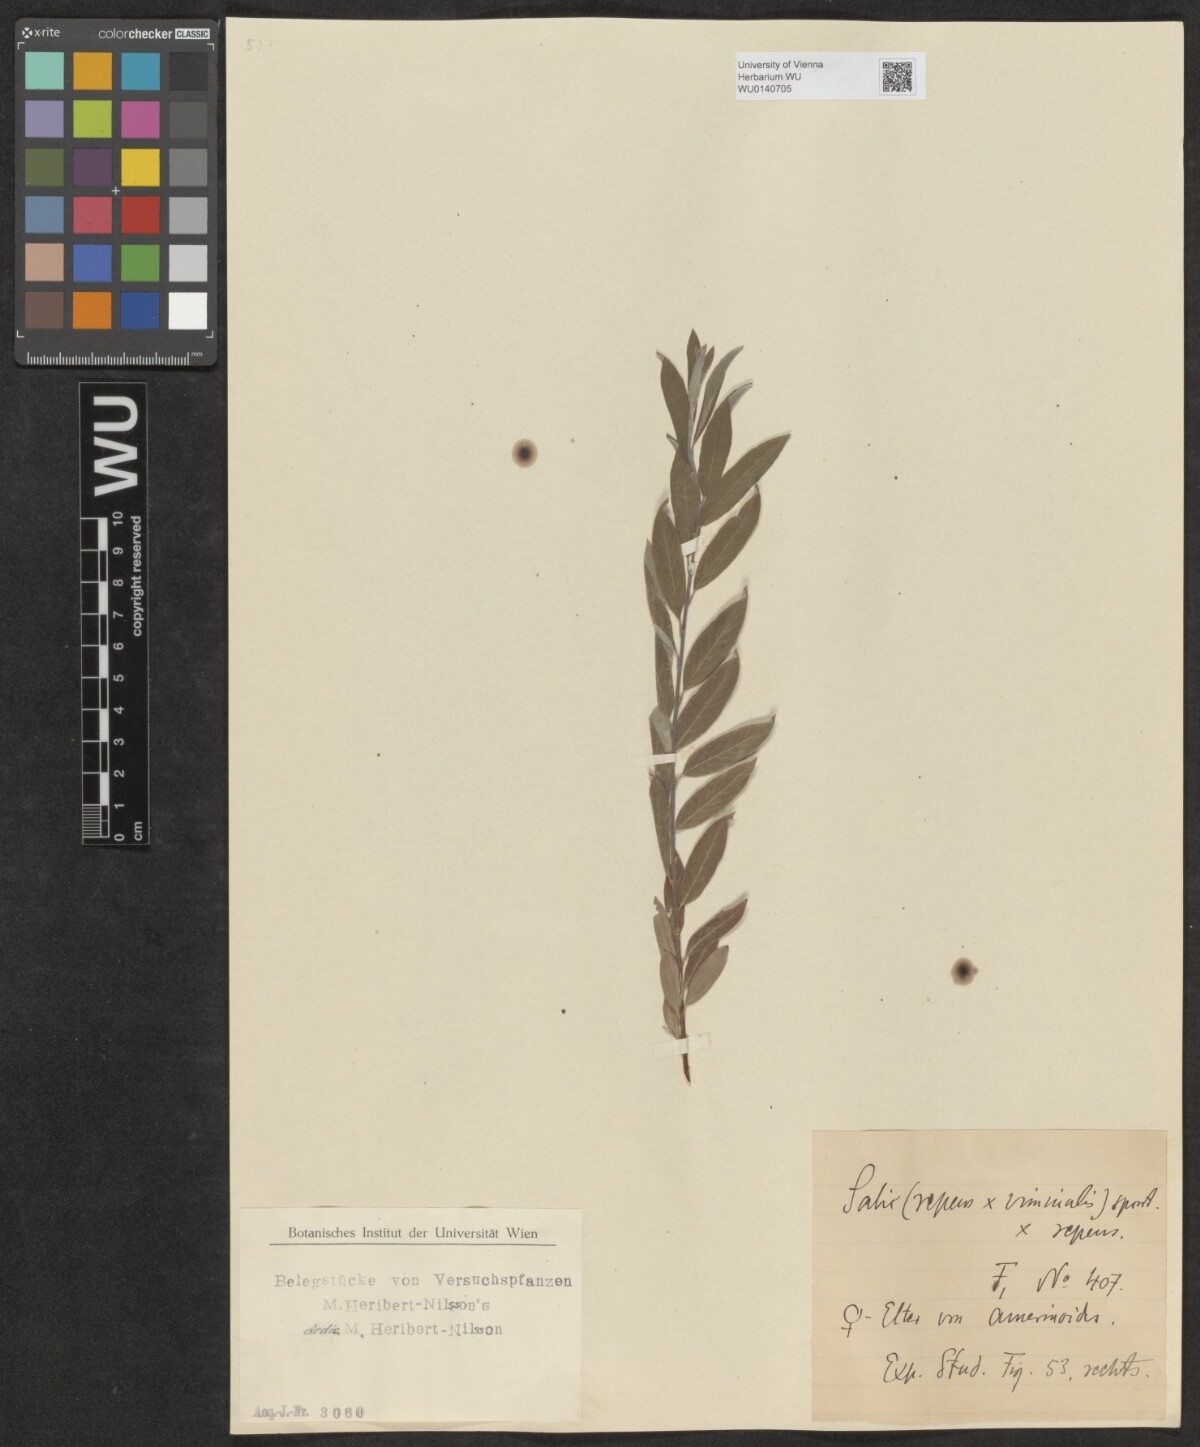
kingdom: Plantae
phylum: Tracheophyta
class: Magnoliopsida
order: Malpighiales
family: Salicaceae
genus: Salix
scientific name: Salix
